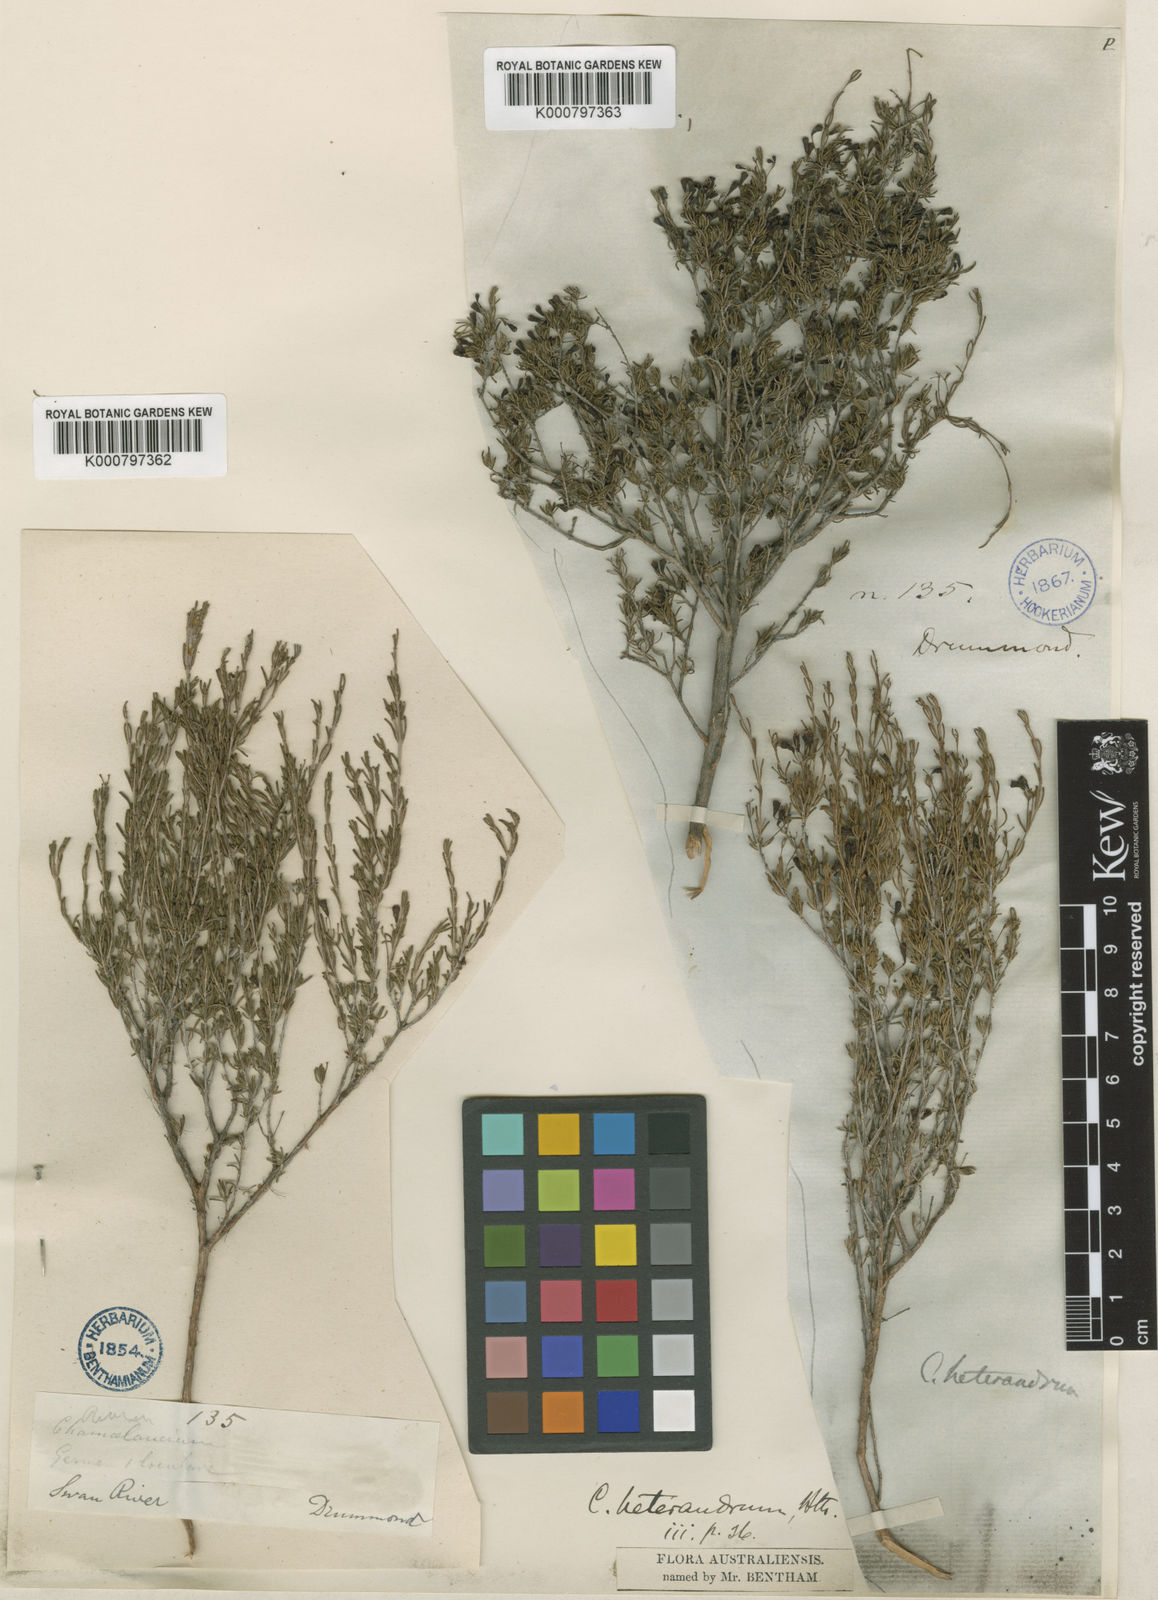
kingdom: Plantae
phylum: Tracheophyta
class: Magnoliopsida
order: Myrtales
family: Myrtaceae
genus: Chamelaucium
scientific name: Chamelaucium heterandrum
